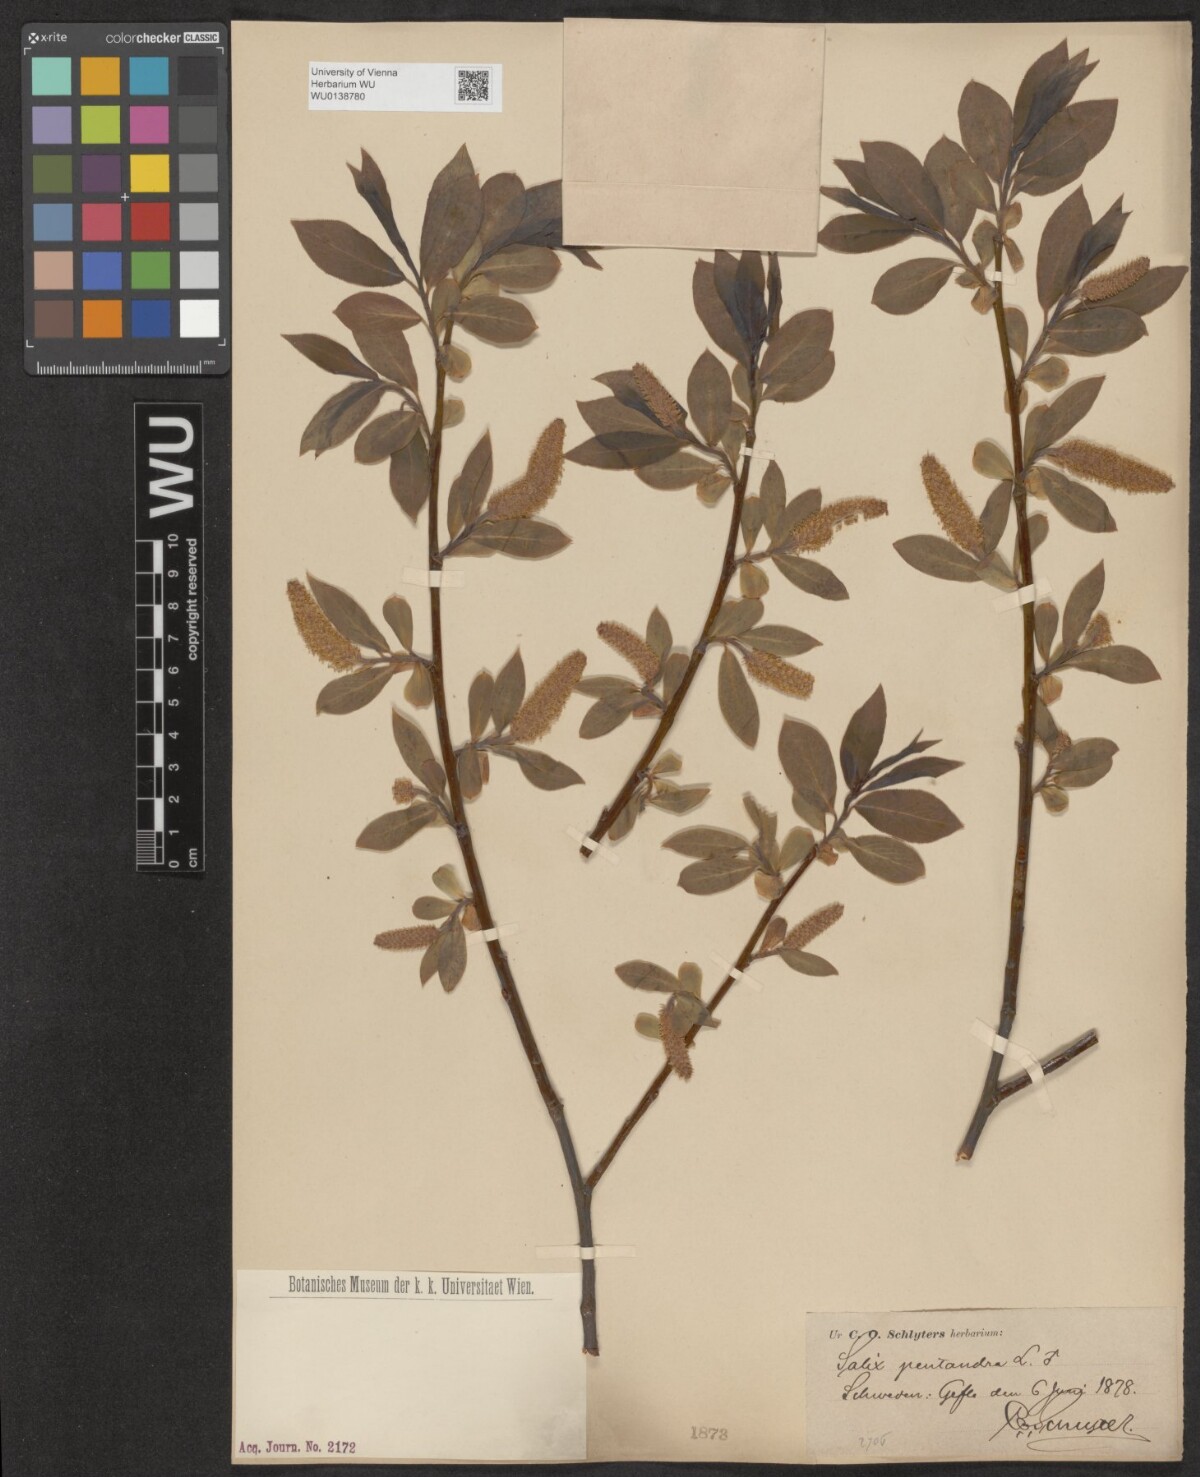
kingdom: Plantae
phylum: Tracheophyta
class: Magnoliopsida
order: Malpighiales
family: Salicaceae
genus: Salix
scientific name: Salix pentandra
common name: Bay willow
